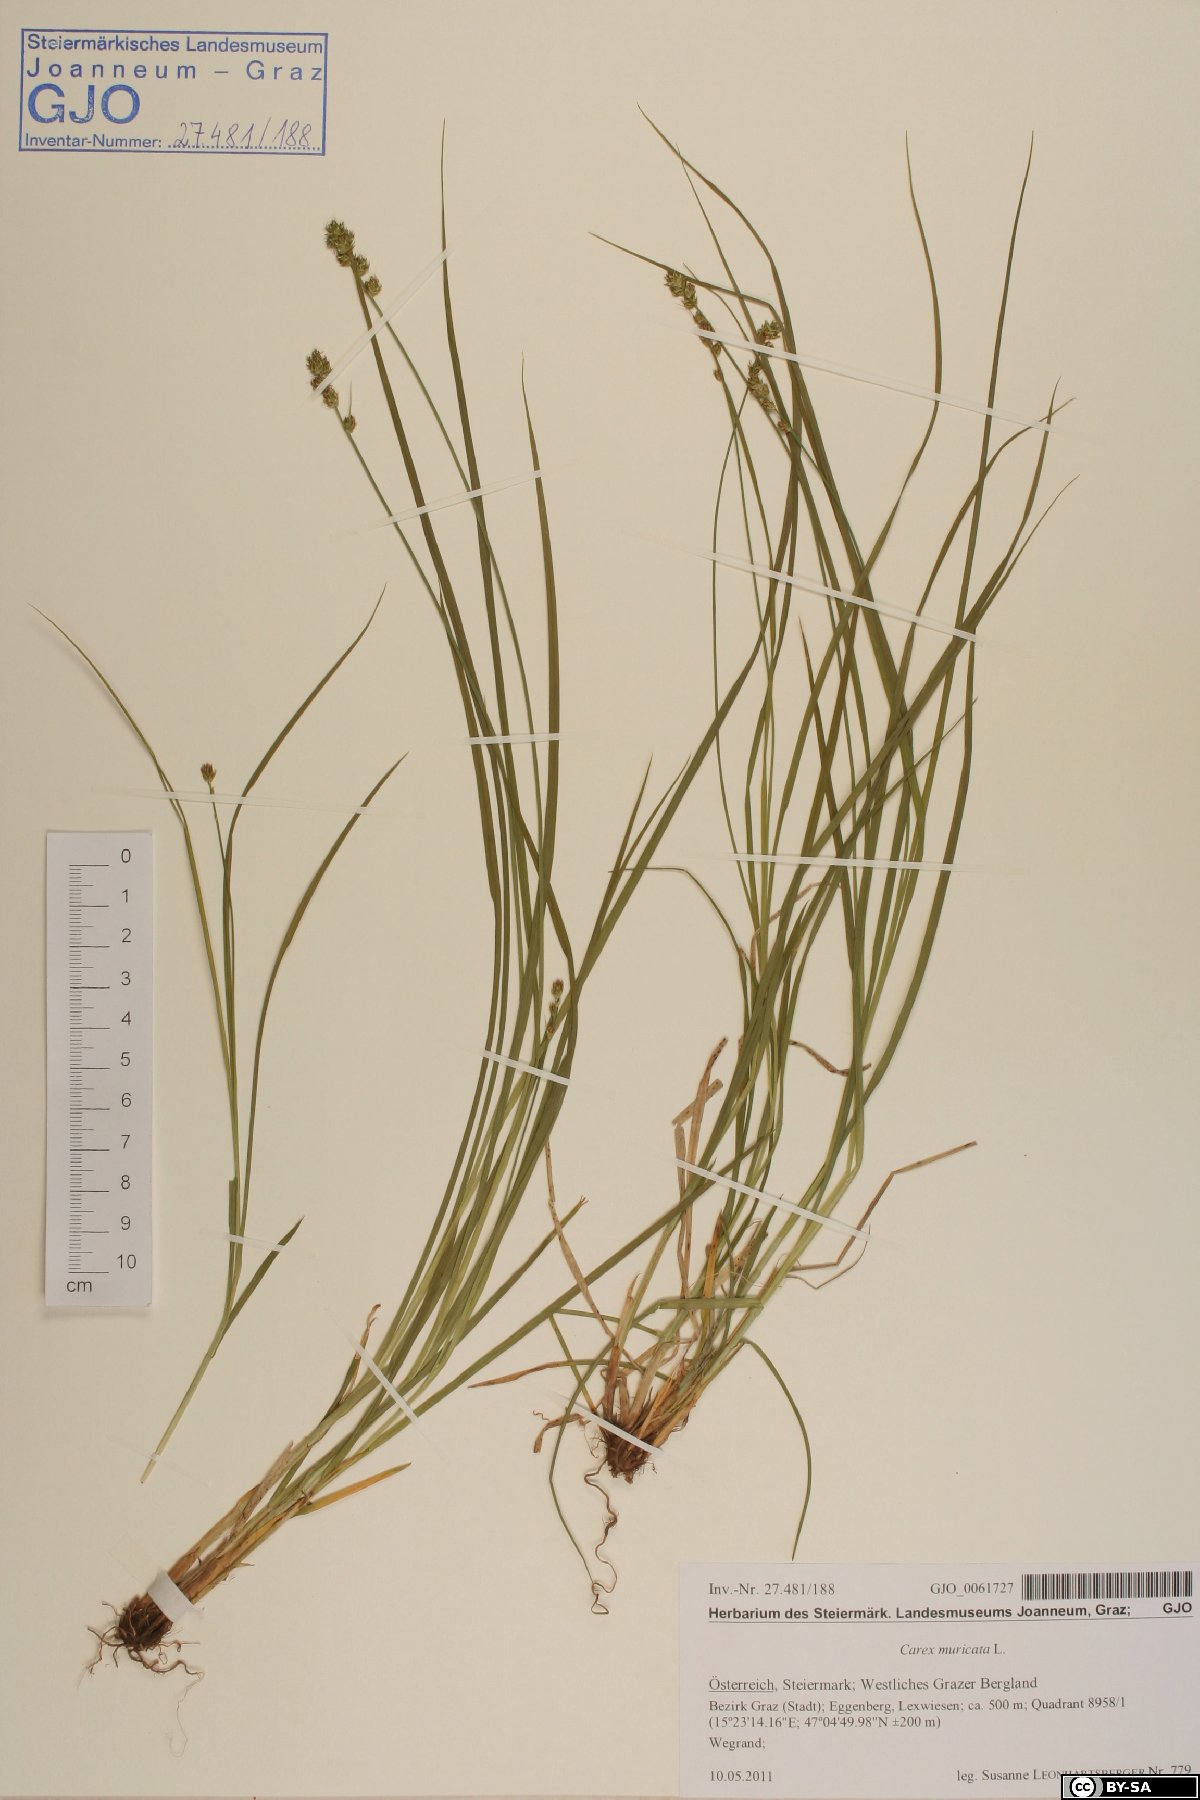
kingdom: Plantae
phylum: Tracheophyta
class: Liliopsida
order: Poales
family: Cyperaceae
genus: Carex
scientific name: Carex muricata
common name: Rough sedge
